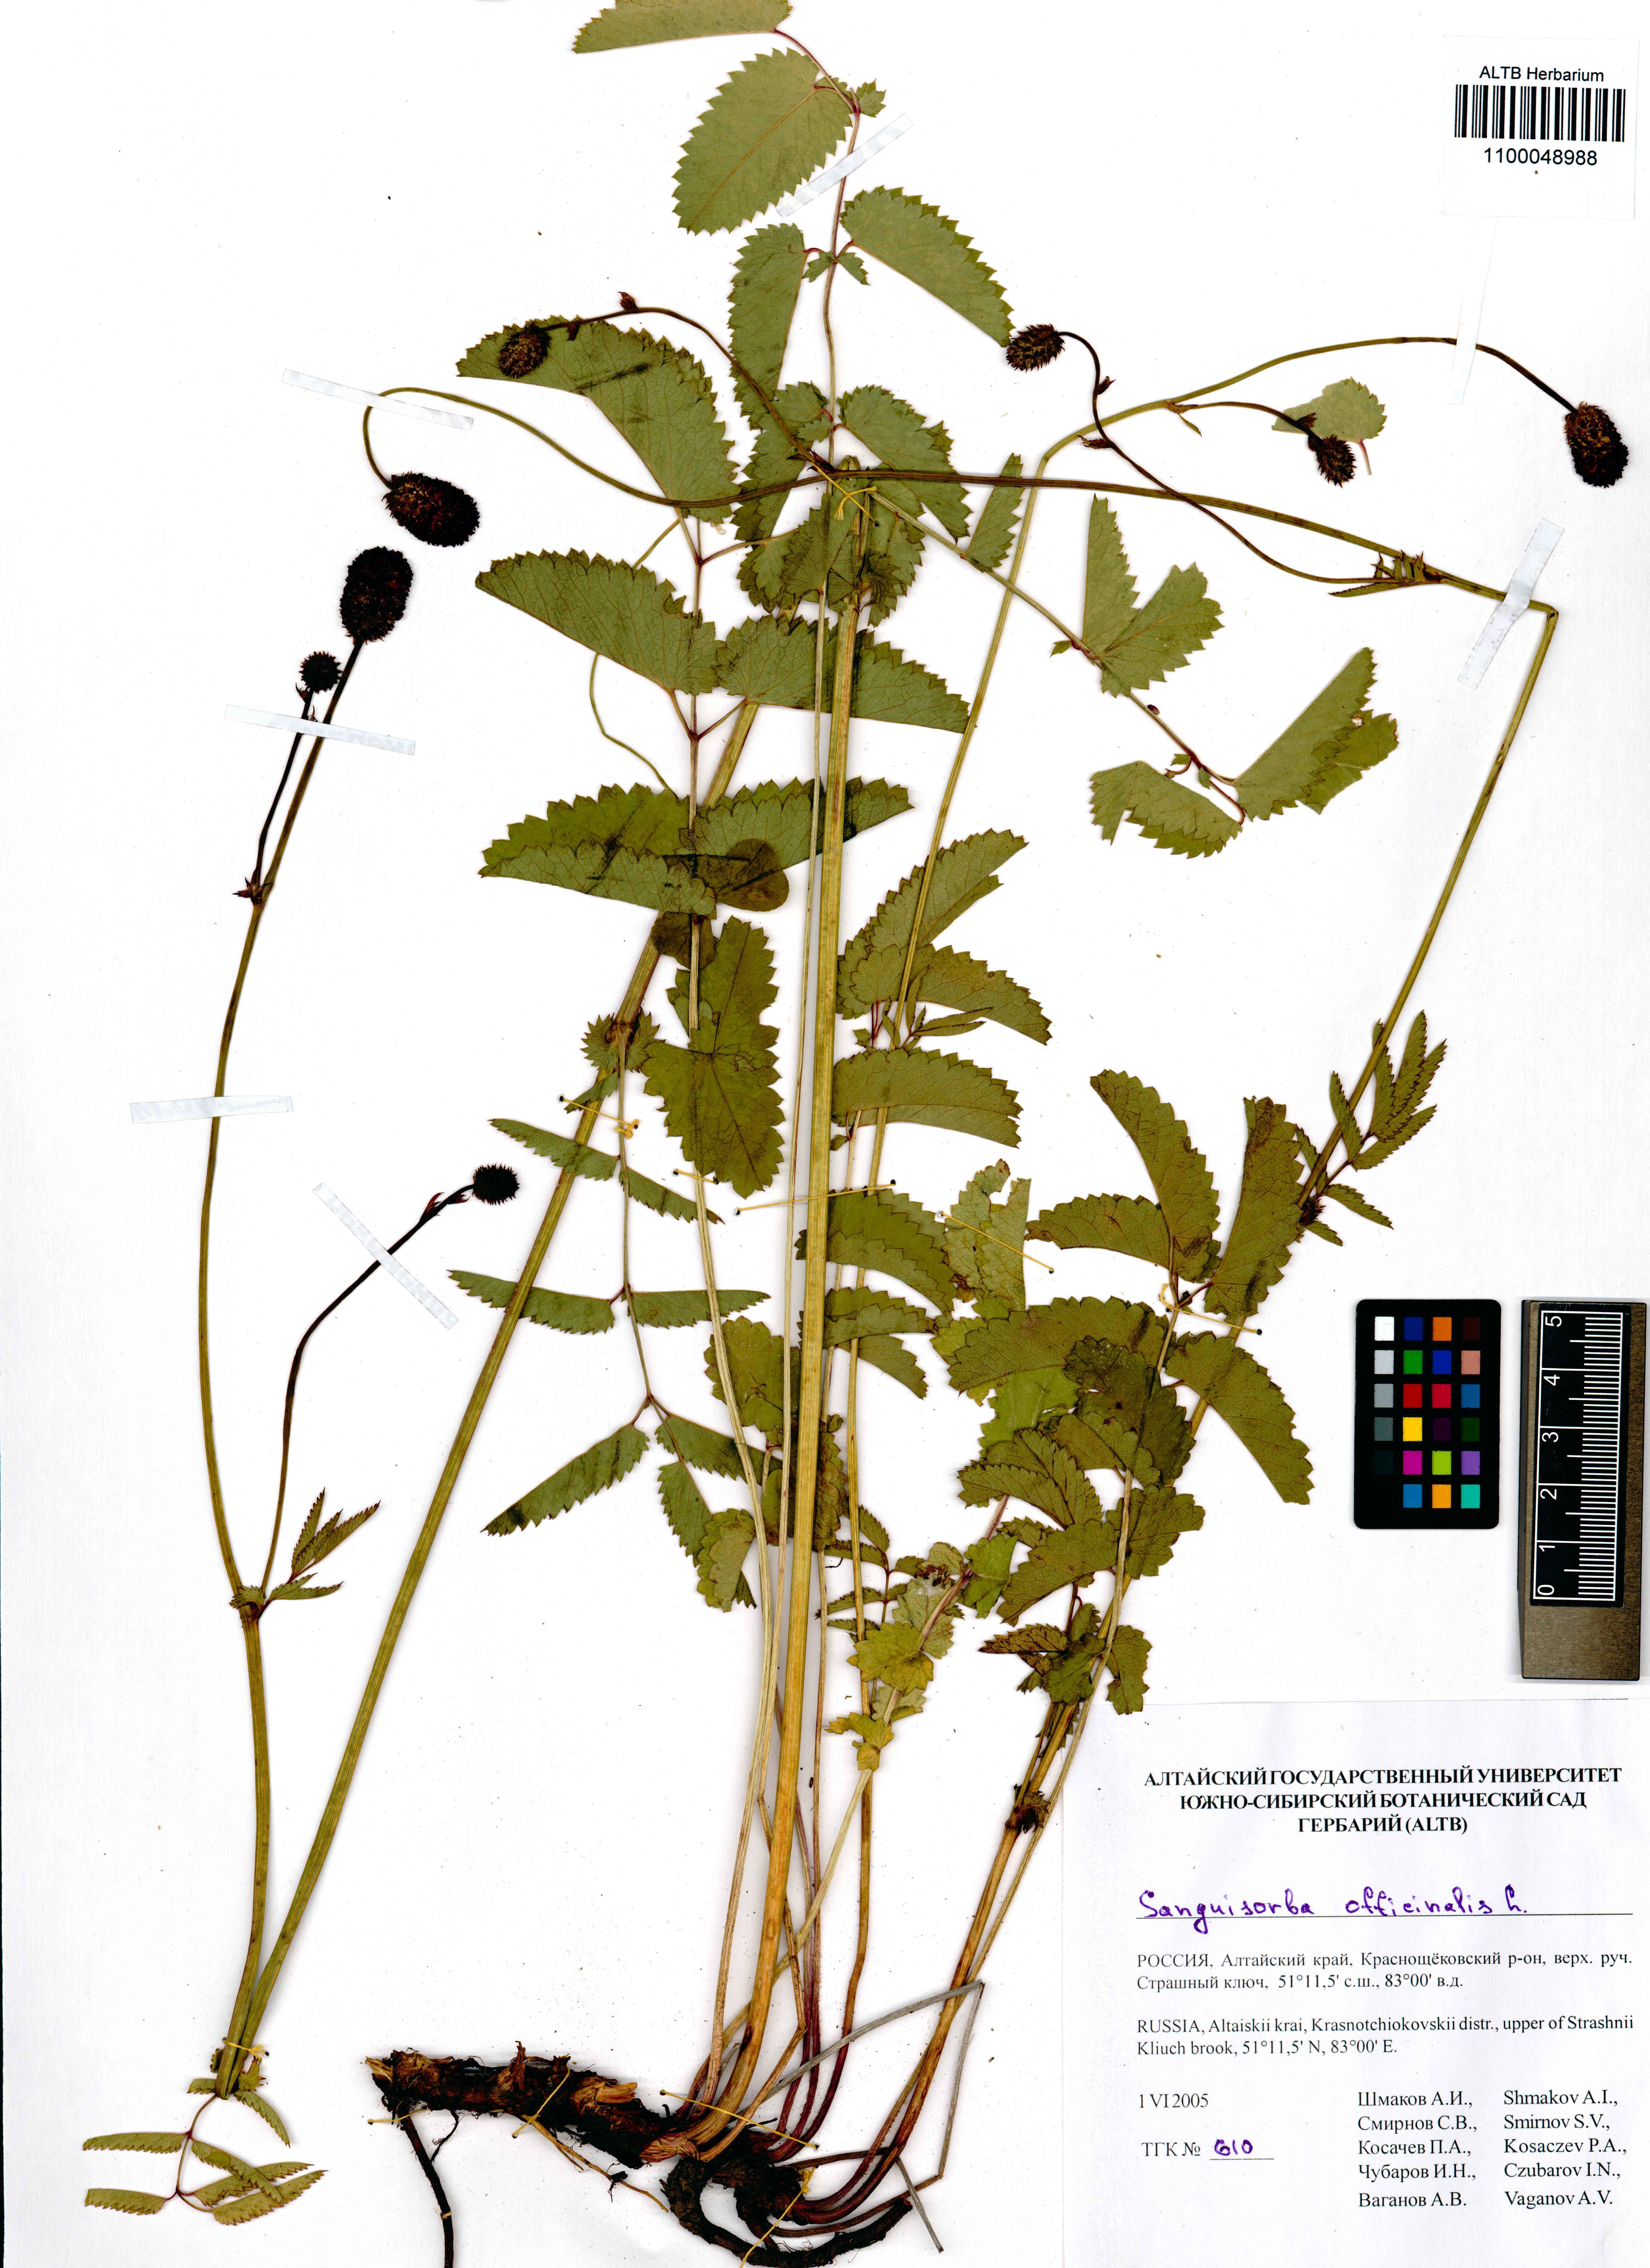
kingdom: Plantae
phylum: Tracheophyta
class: Magnoliopsida
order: Rosales
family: Rosaceae
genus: Sanguisorba
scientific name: Sanguisorba officinalis
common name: Great burnet
